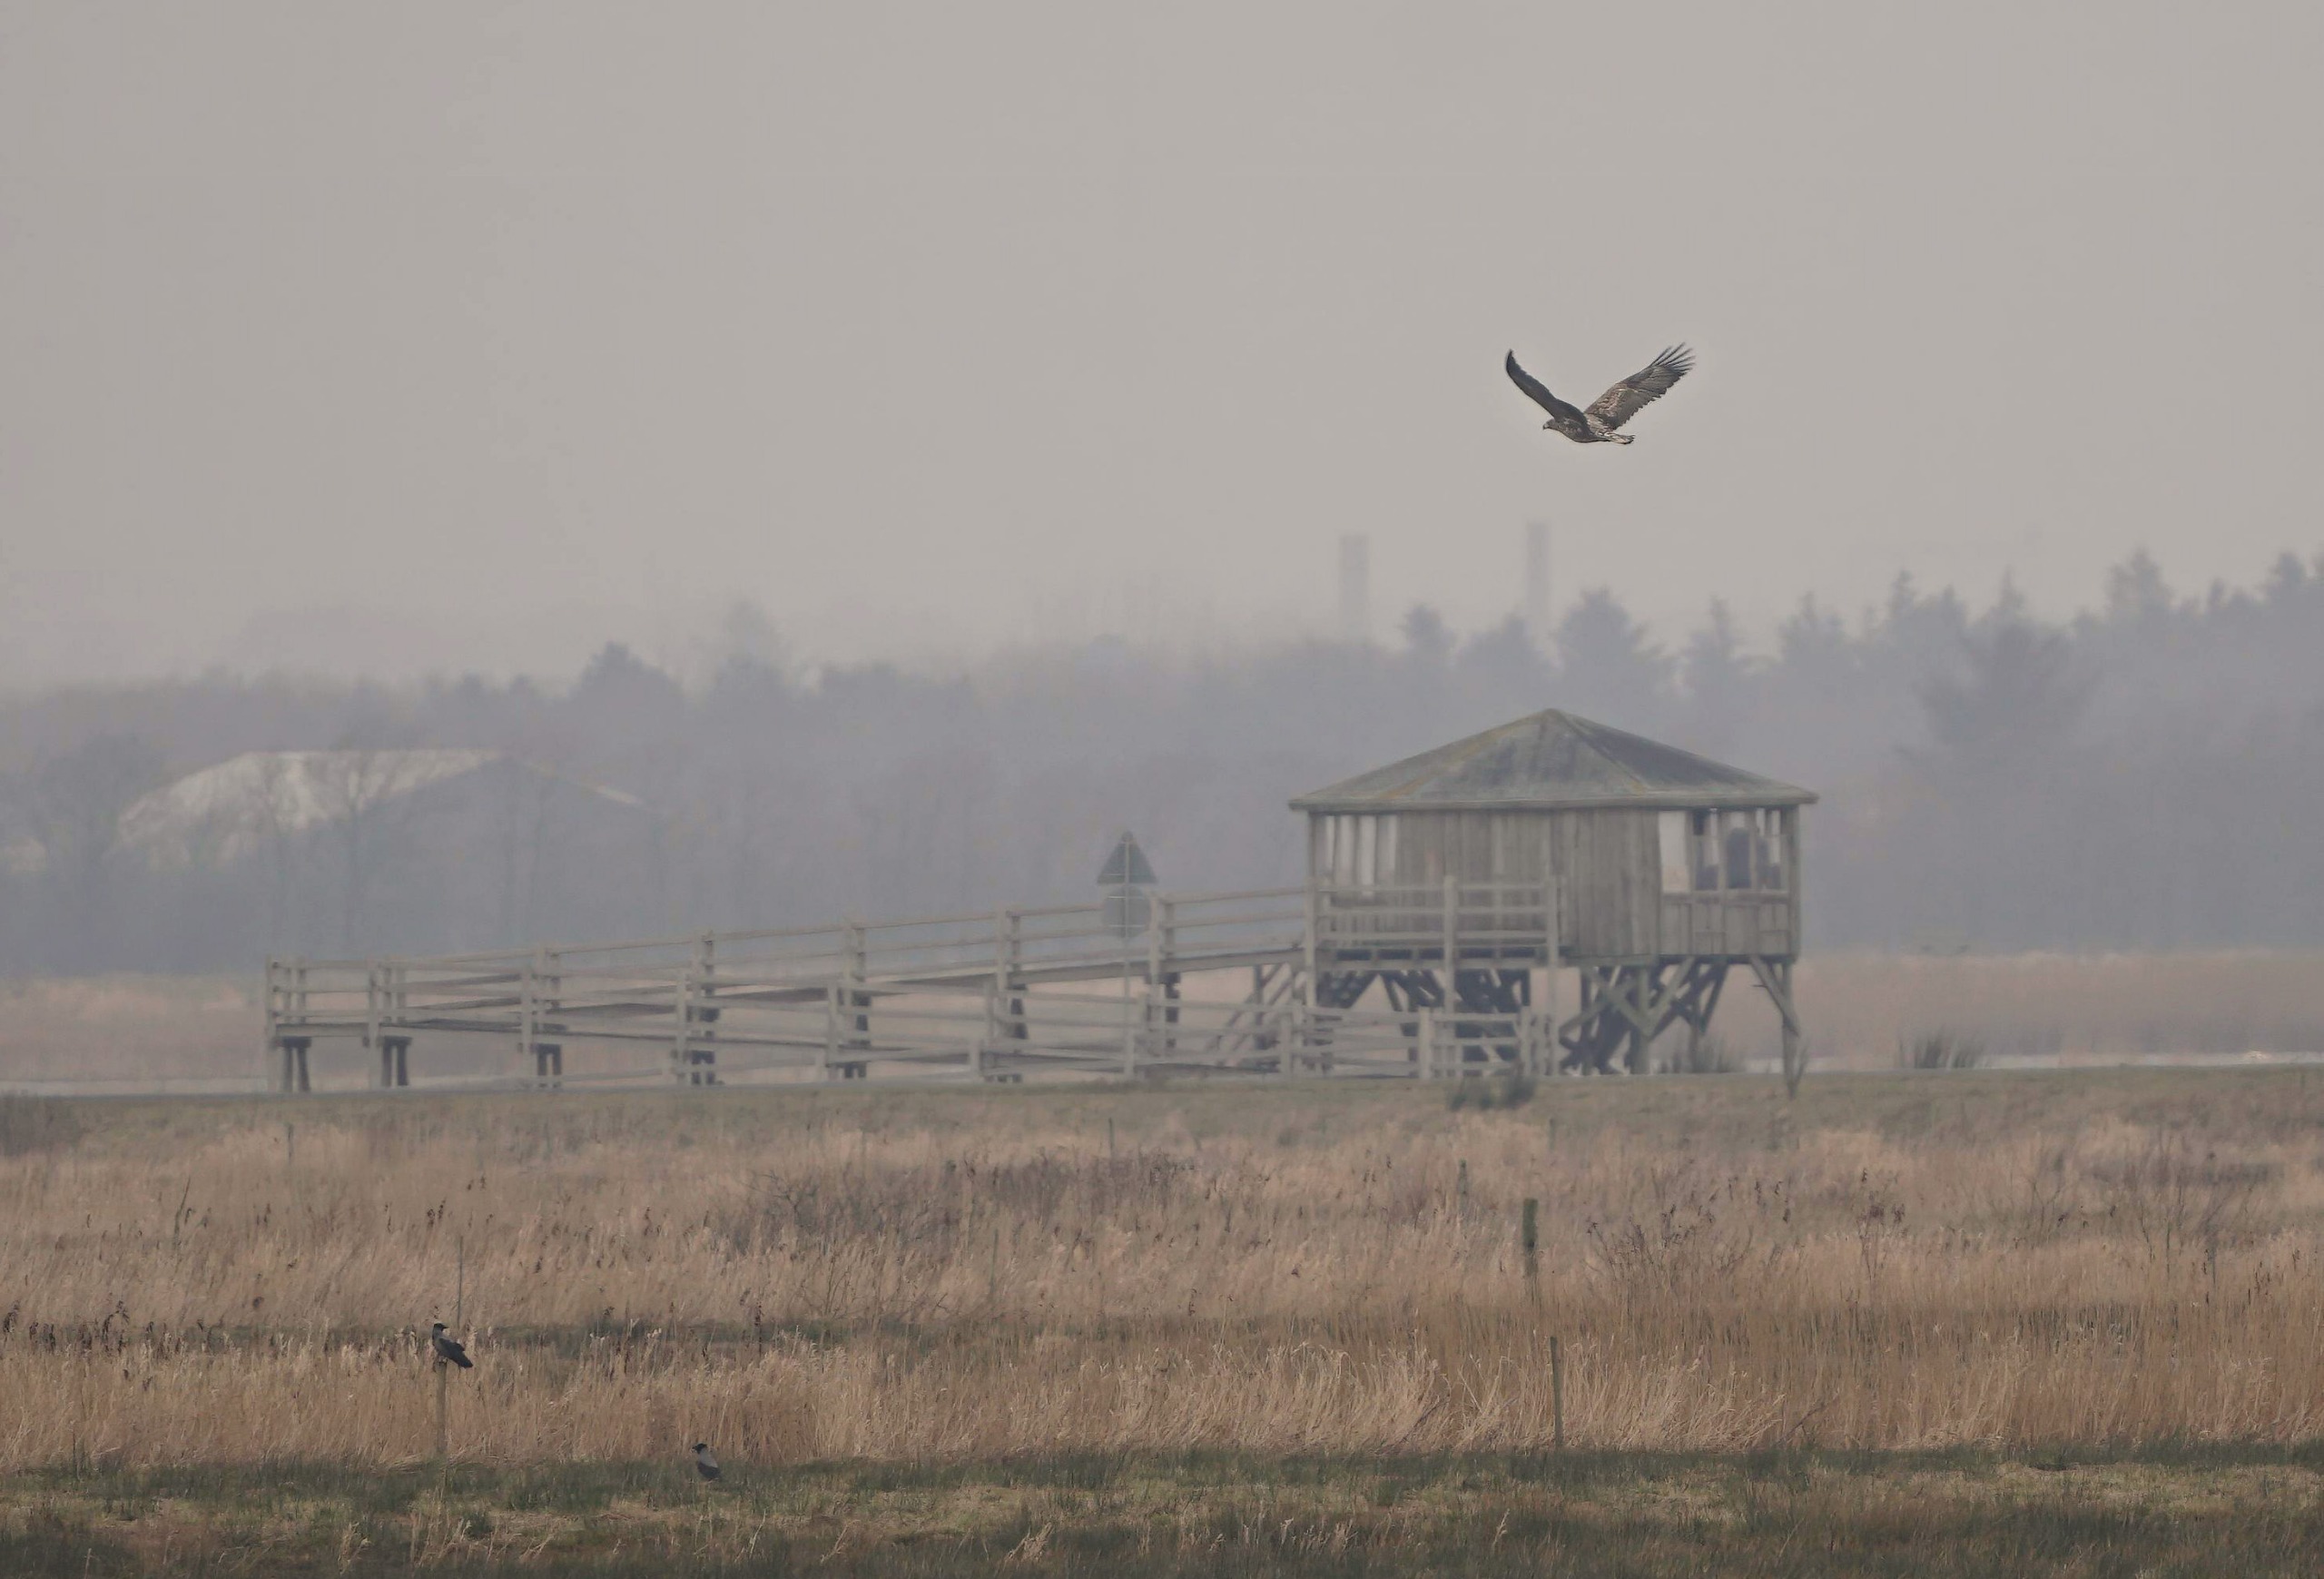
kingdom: Animalia
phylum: Chordata
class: Aves
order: Accipitriformes
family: Accipitridae
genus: Haliaeetus
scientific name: Haliaeetus albicilla
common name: Havørn
